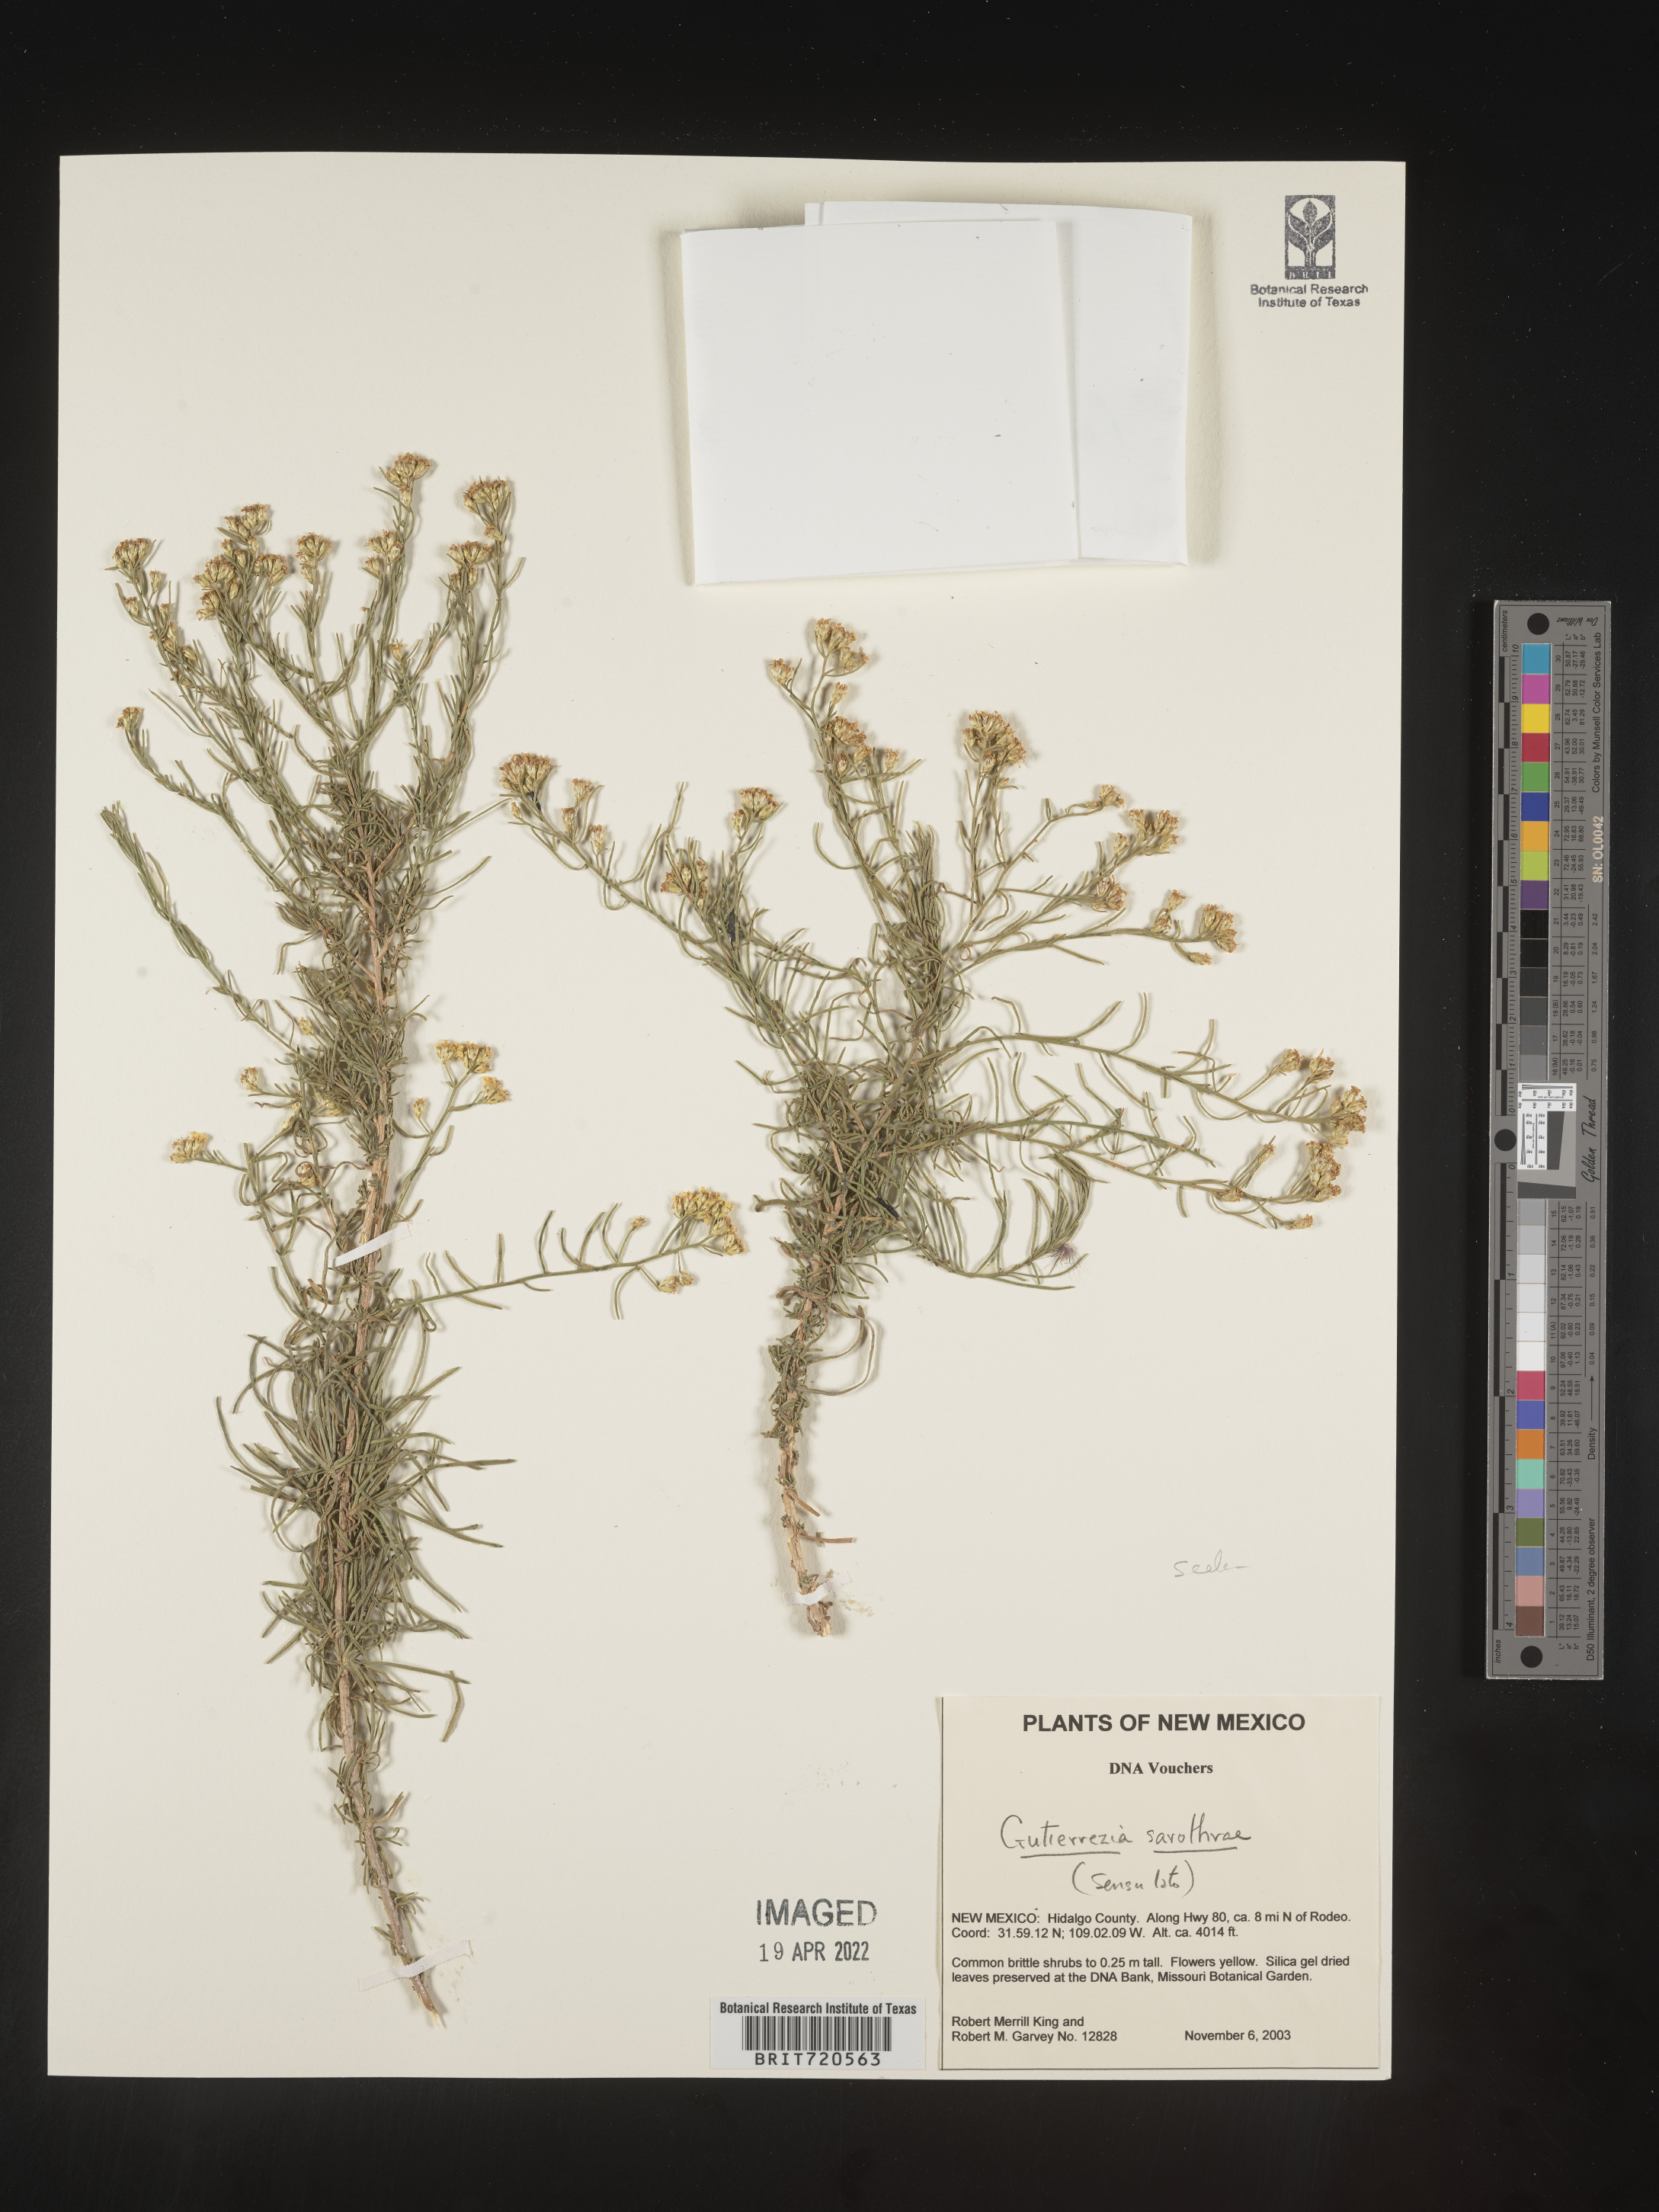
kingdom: Plantae
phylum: Tracheophyta
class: Magnoliopsida
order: Asterales
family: Asteraceae
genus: Gutierrezia
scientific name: Gutierrezia sarothrae
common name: Broom snakeweed
